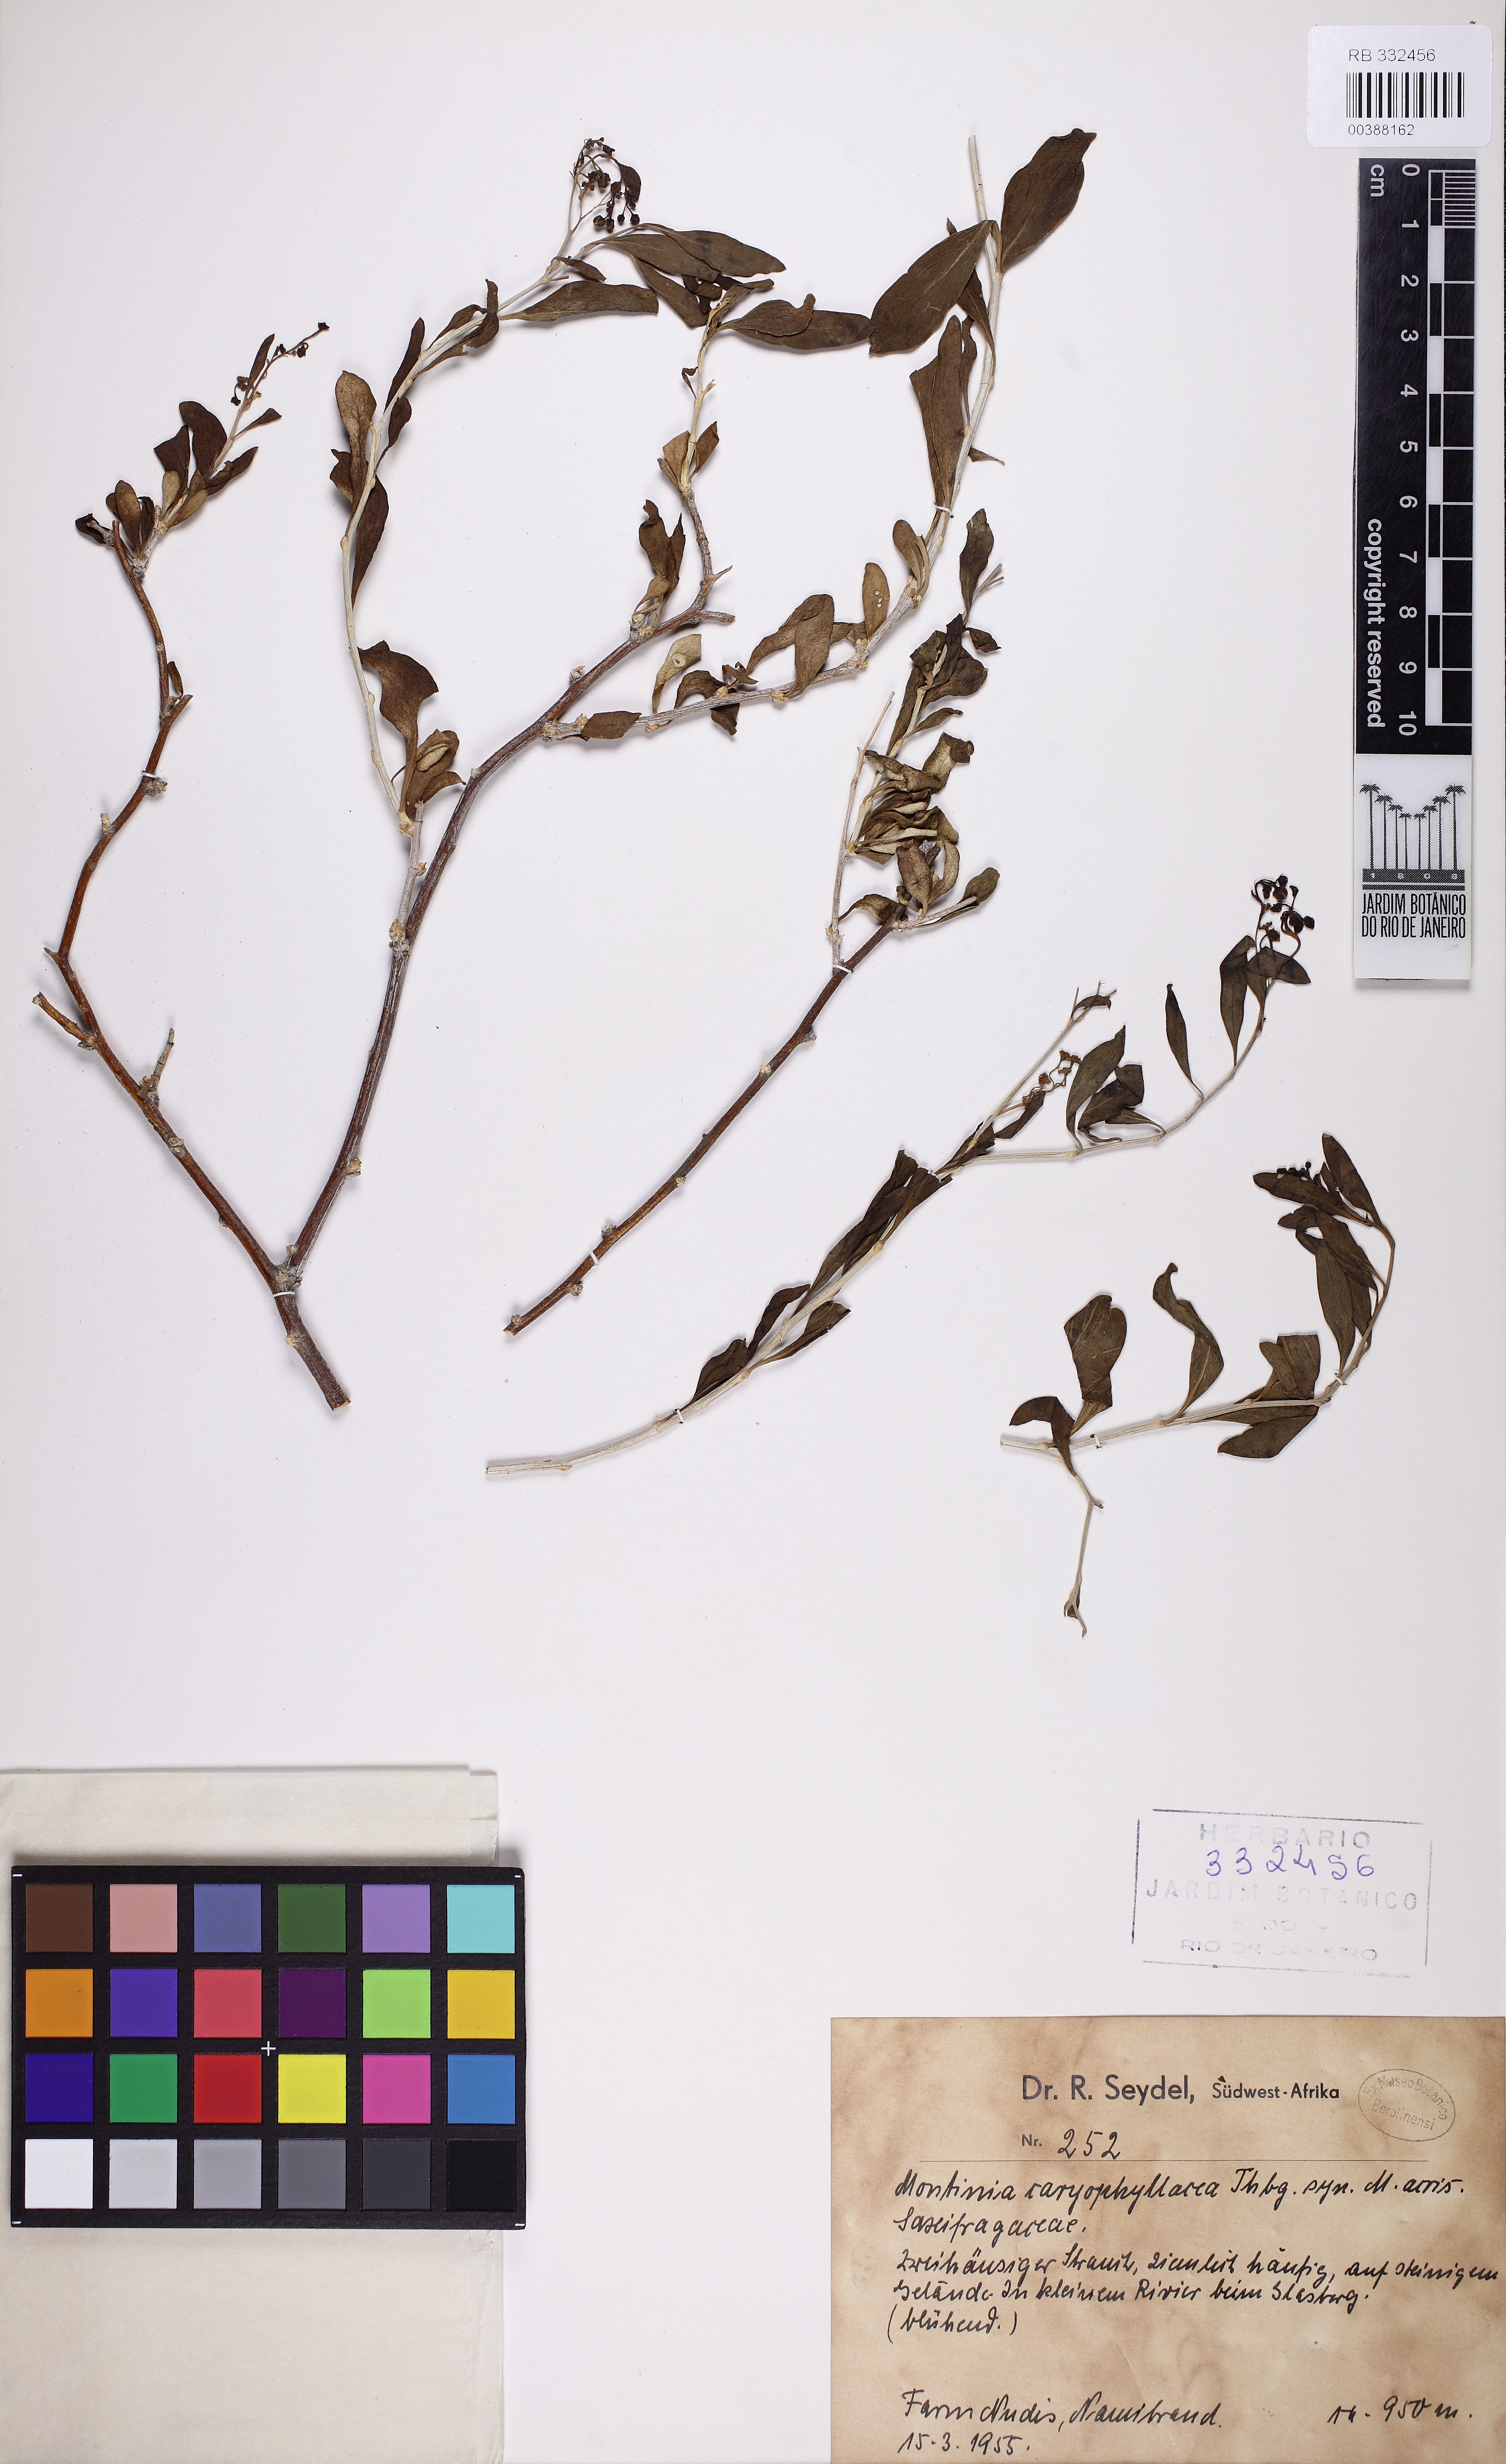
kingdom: Plantae
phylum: Tracheophyta
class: Magnoliopsida
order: Solanales
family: Montiniaceae
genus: Montinia
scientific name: Montinia caryophyllacea
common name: Wild clove-bush
